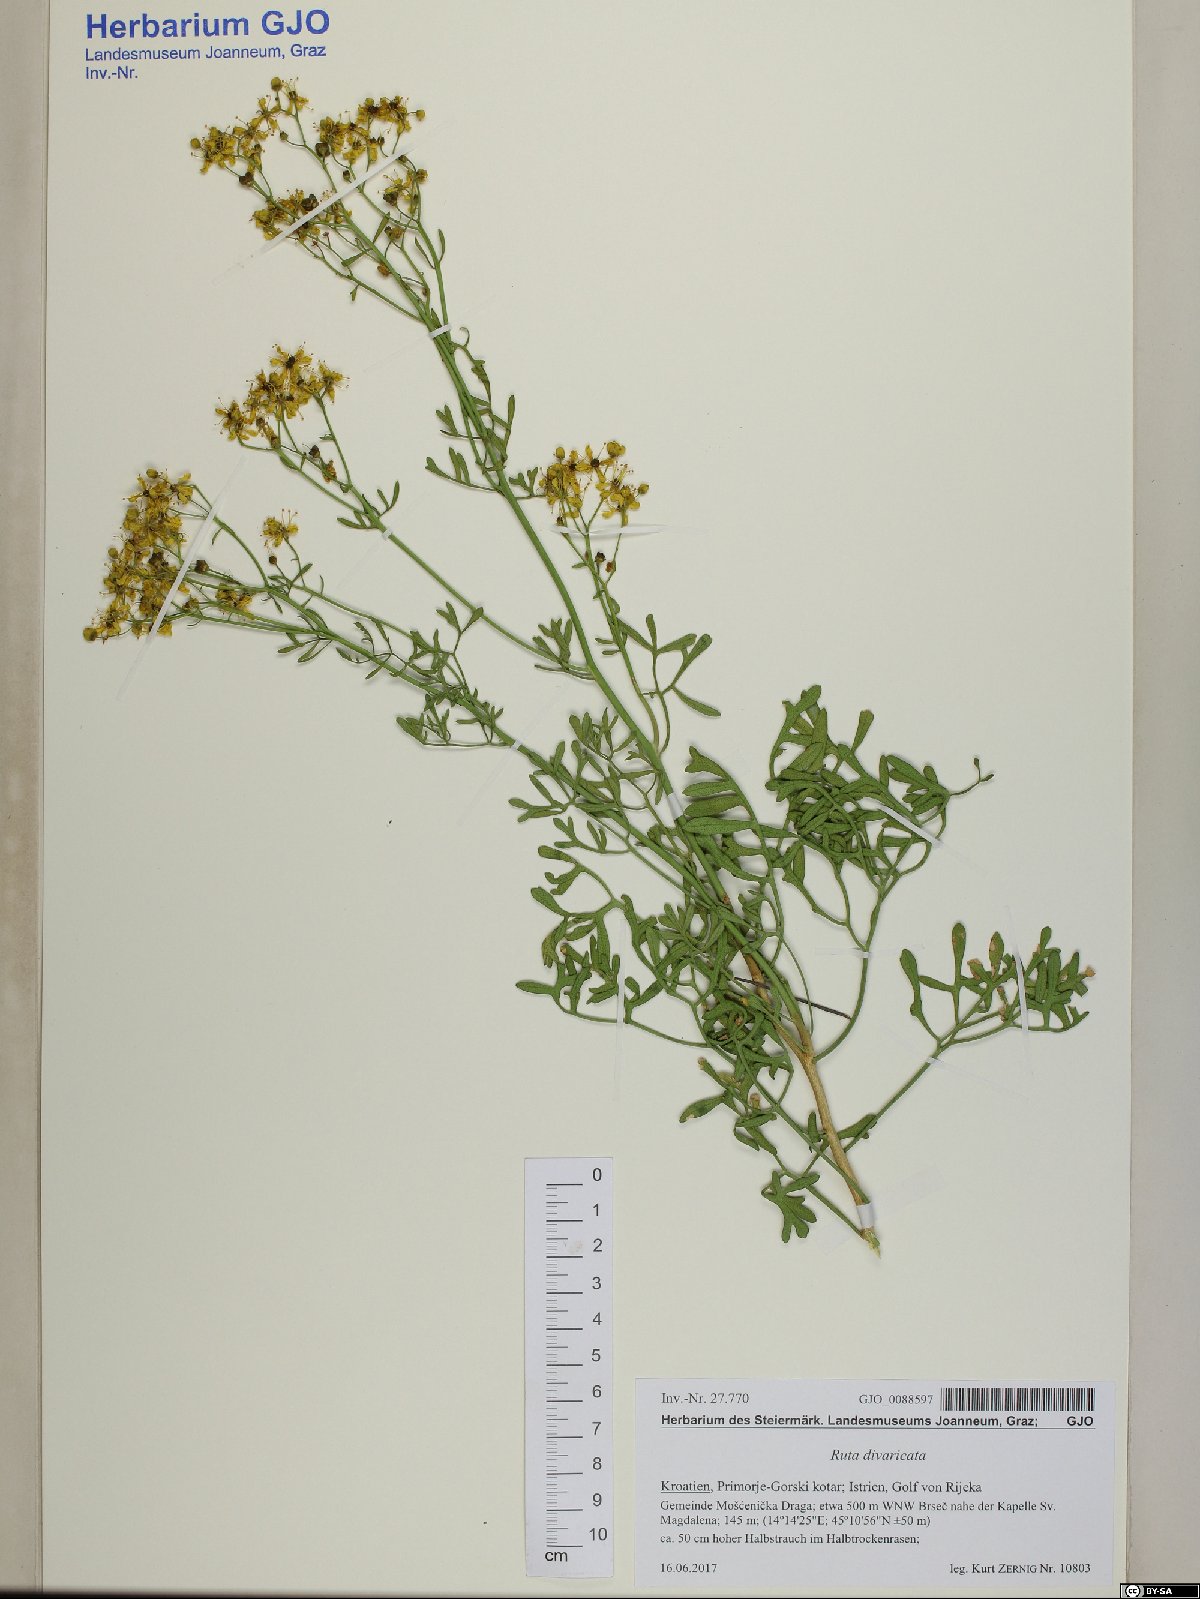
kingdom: Plantae
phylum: Tracheophyta
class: Magnoliopsida
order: Sapindales
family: Rutaceae
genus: Ruta
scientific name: Ruta graveolens
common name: Common rue
